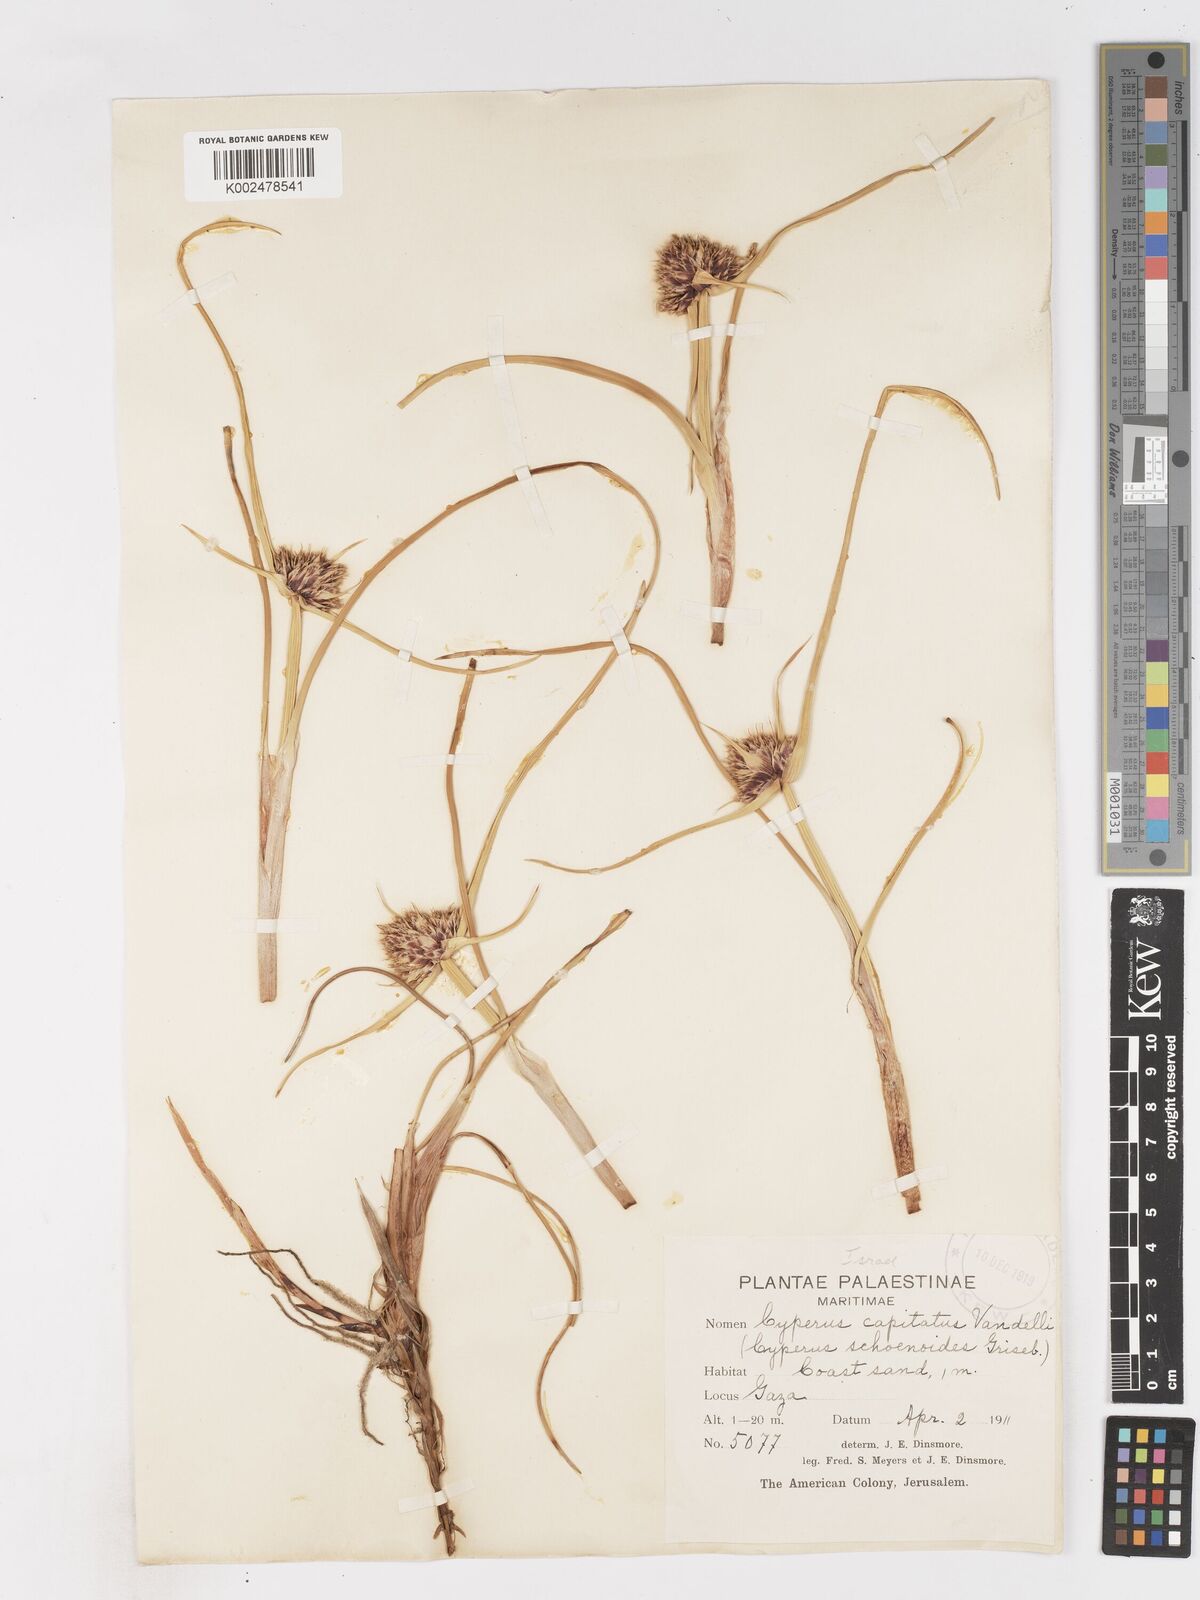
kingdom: Plantae
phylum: Tracheophyta
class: Liliopsida
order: Poales
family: Cyperaceae
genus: Cyperus
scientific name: Cyperus capitatus
